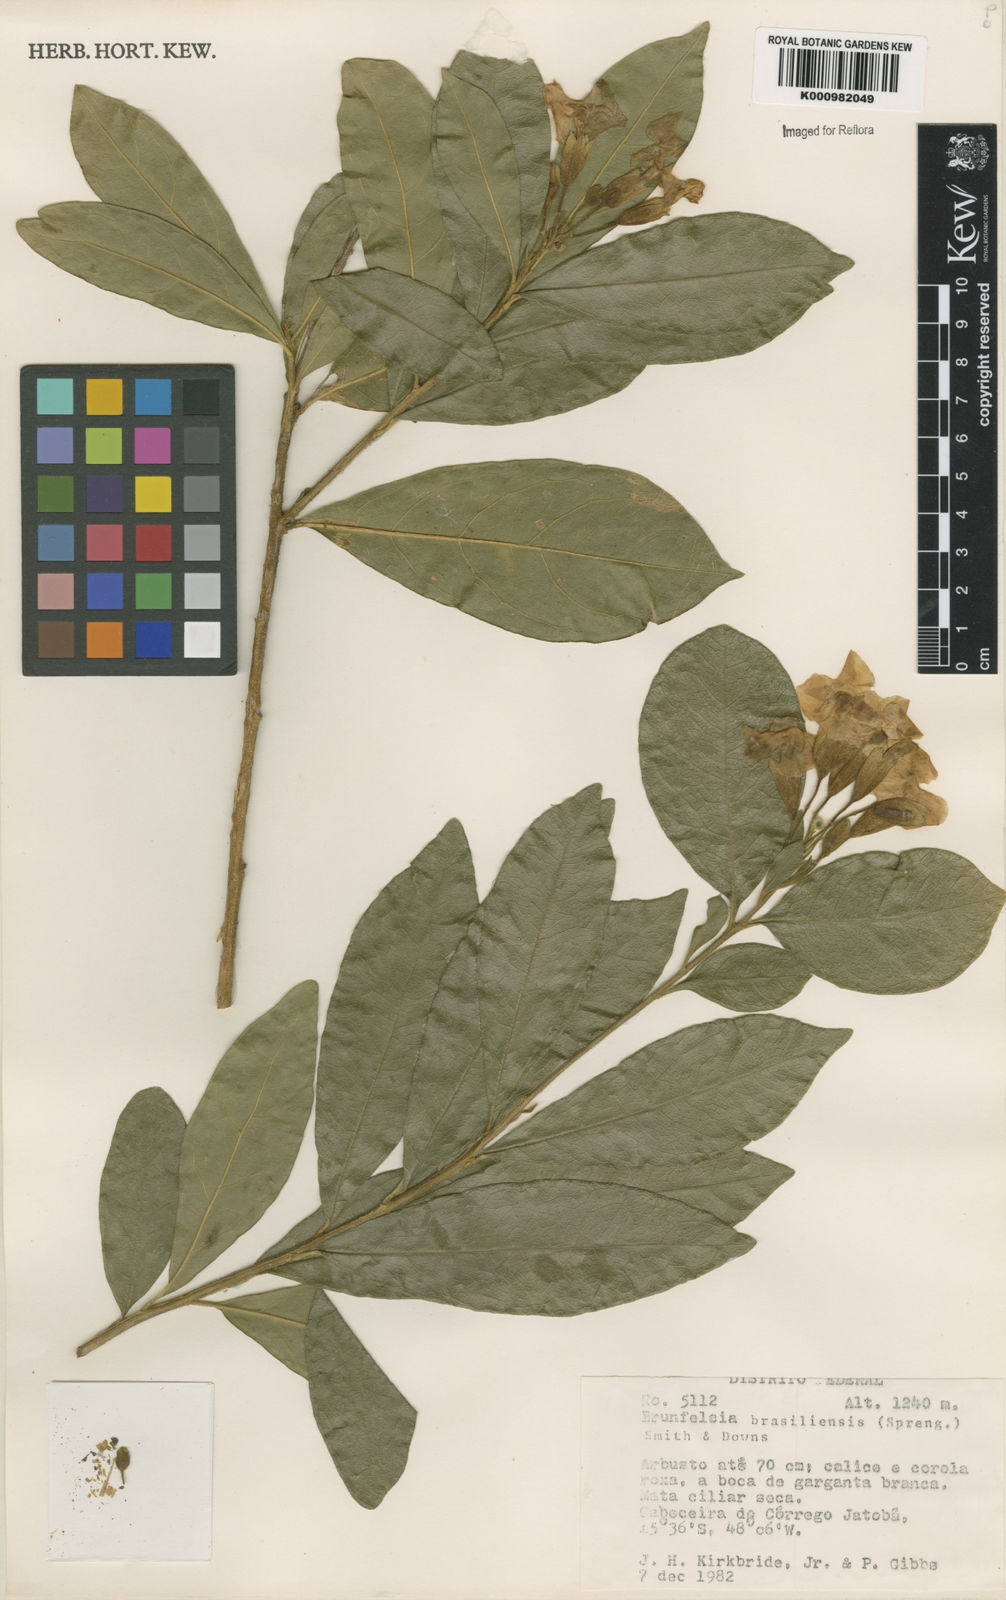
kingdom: Plantae
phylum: Tracheophyta
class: Magnoliopsida
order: Solanales
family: Solanaceae
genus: Brunfelsia
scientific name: Brunfelsia brasiliensis
